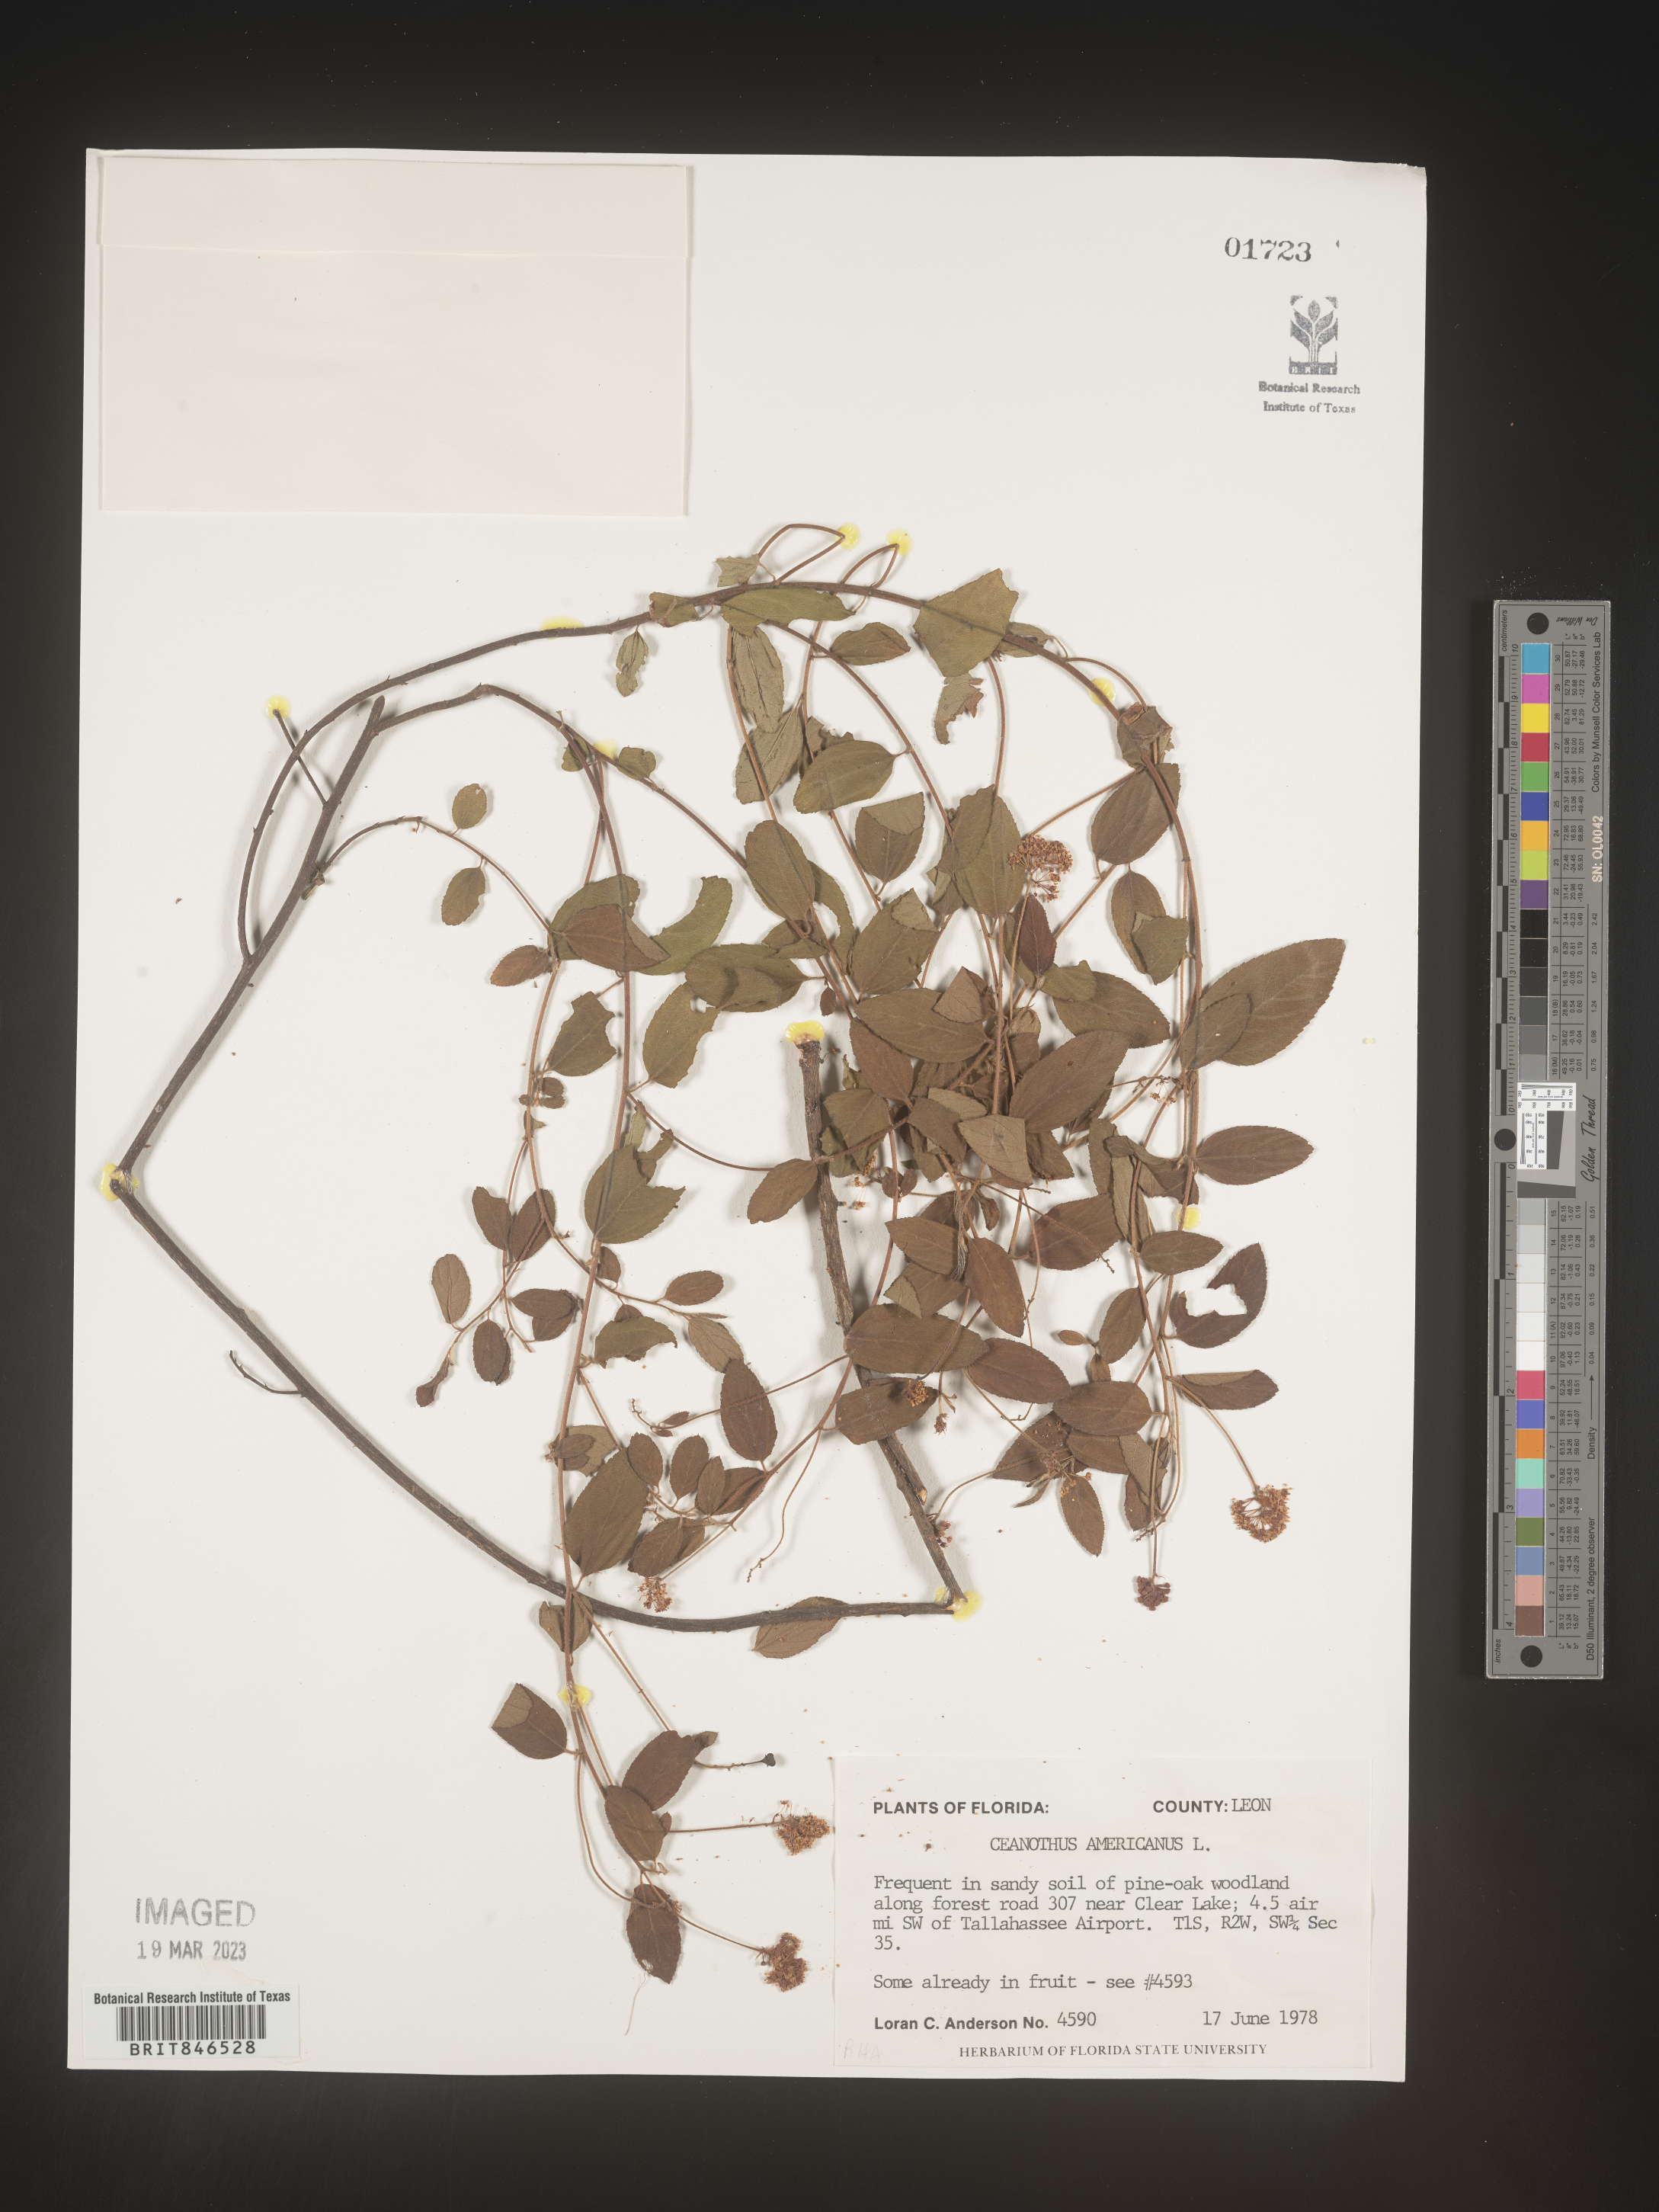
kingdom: Plantae
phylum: Tracheophyta
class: Magnoliopsida
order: Rosales
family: Rhamnaceae
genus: Ceanothus
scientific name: Ceanothus americanus
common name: Redroot
